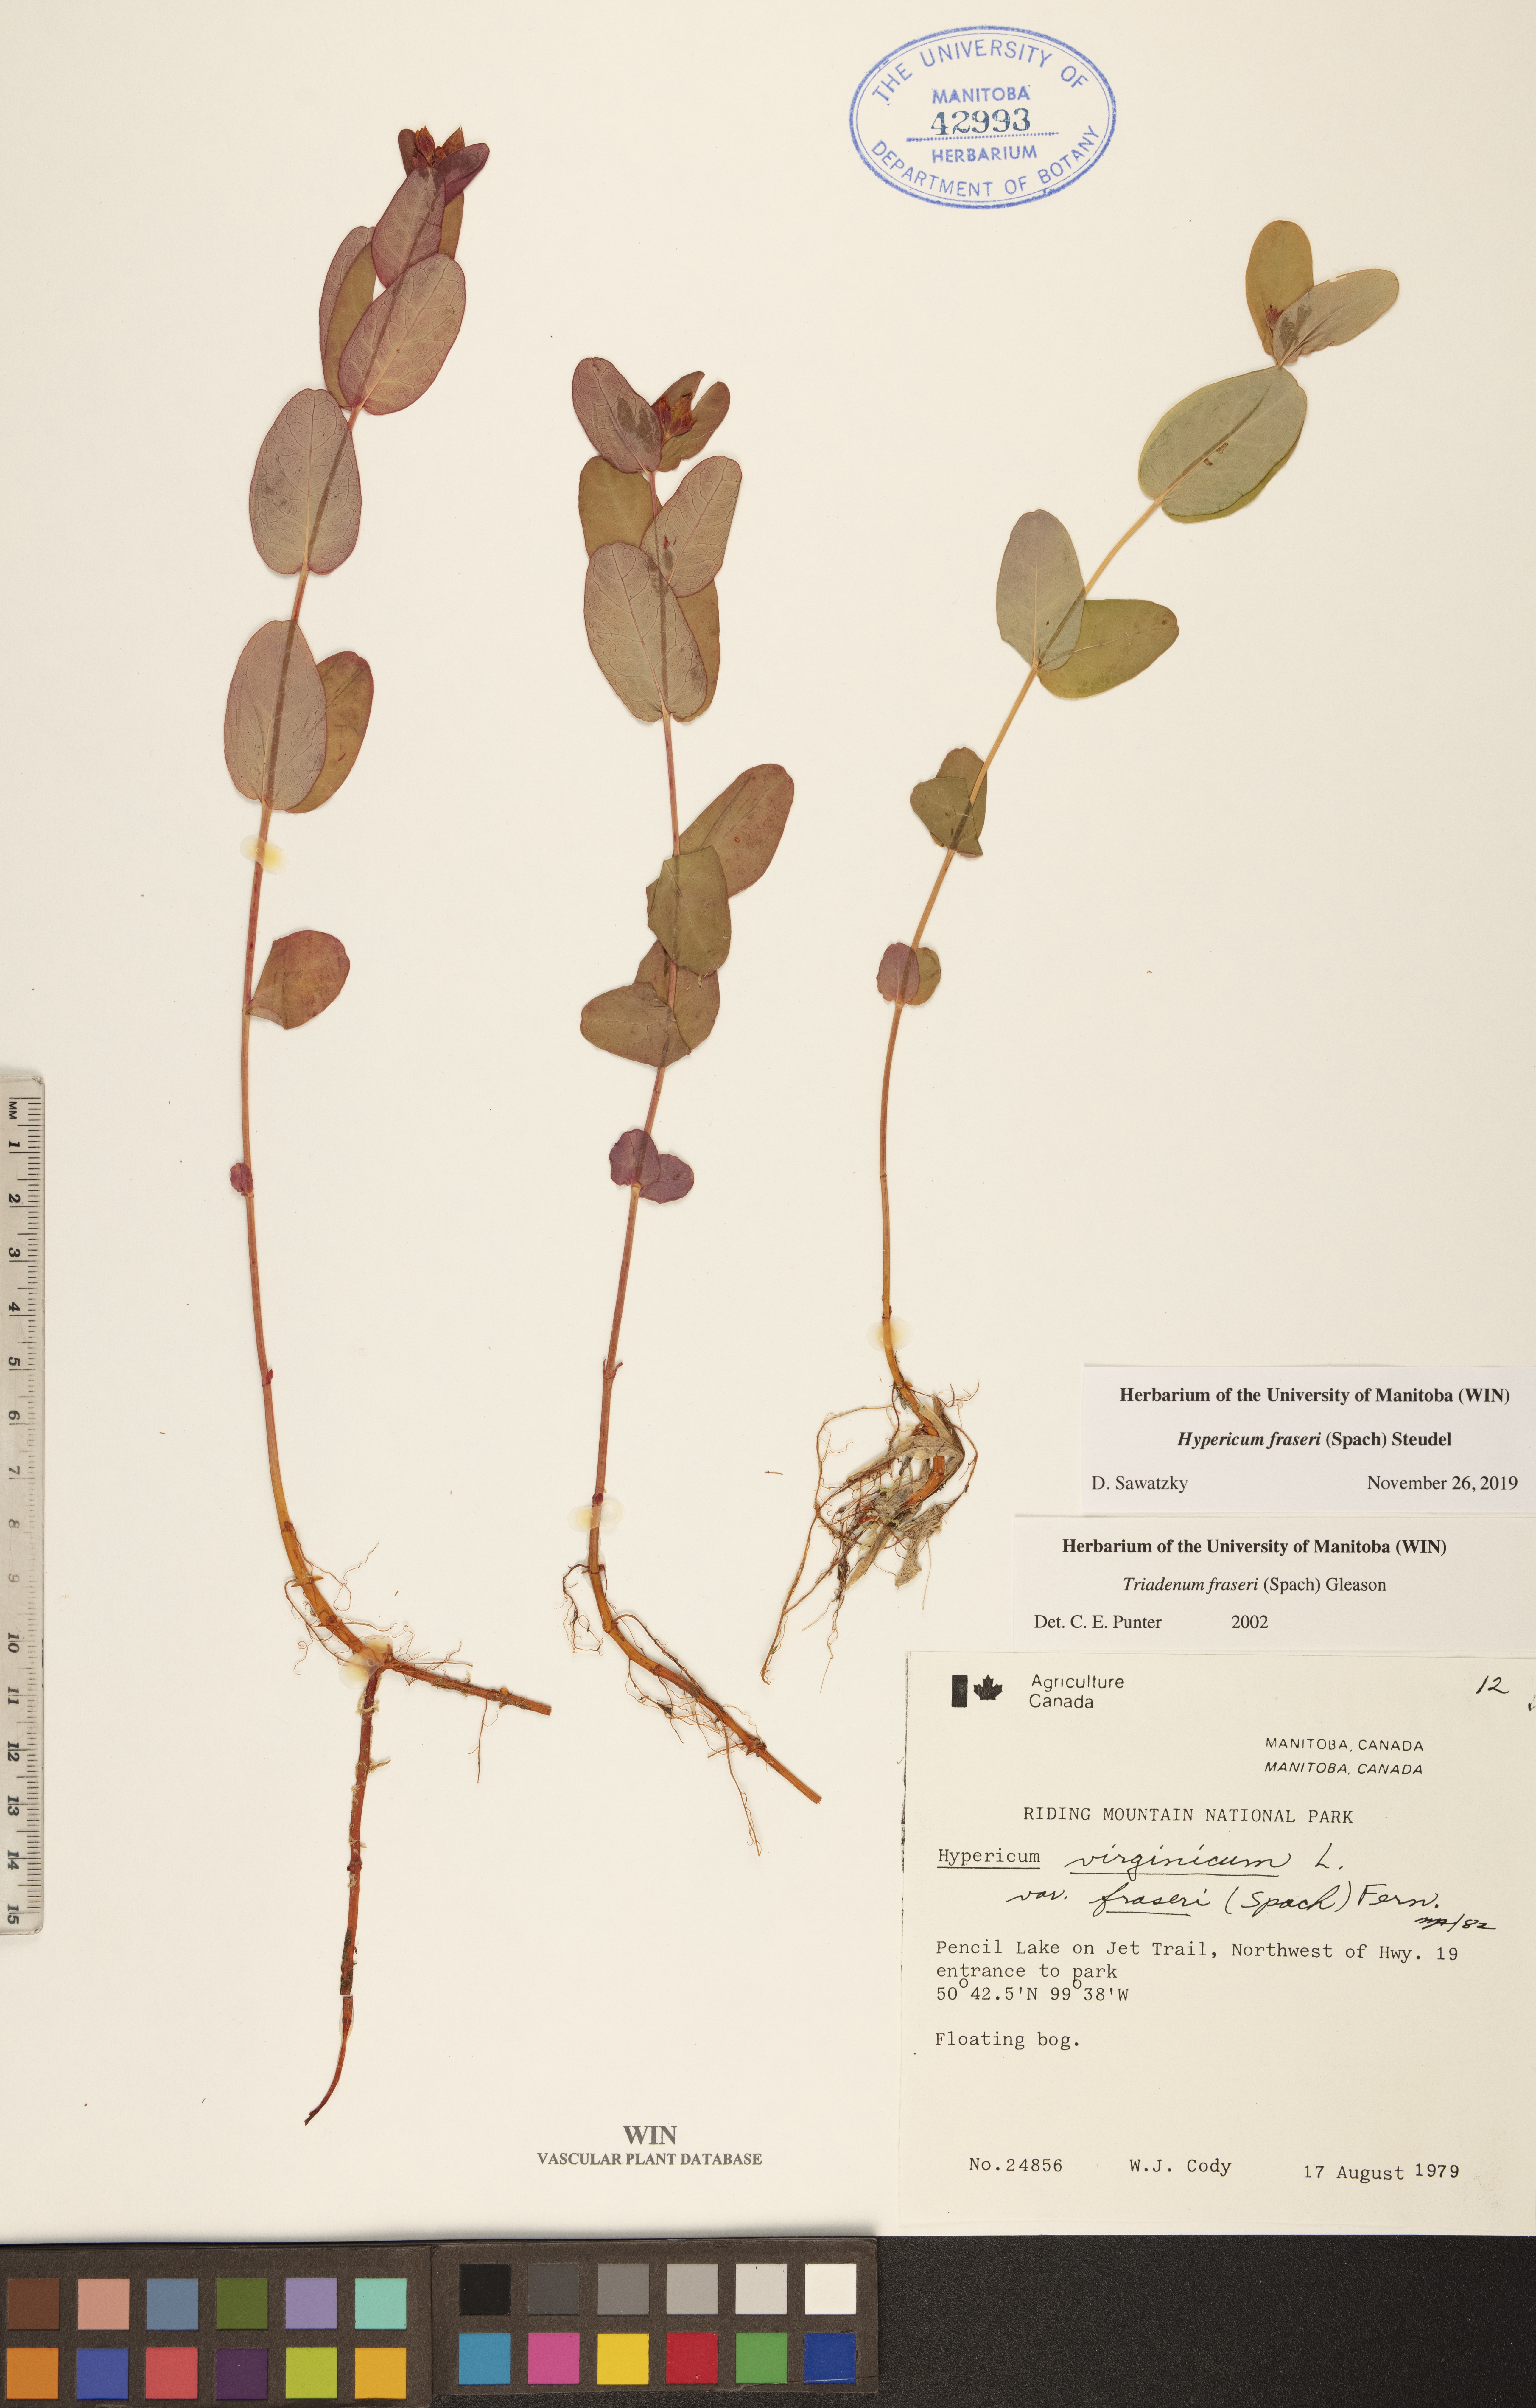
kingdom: Plantae
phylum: Tracheophyta
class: Magnoliopsida
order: Malpighiales
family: Hypericaceae
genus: Triadenum
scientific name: Triadenum fraseri
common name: Fraser's marsh st. johnswort
